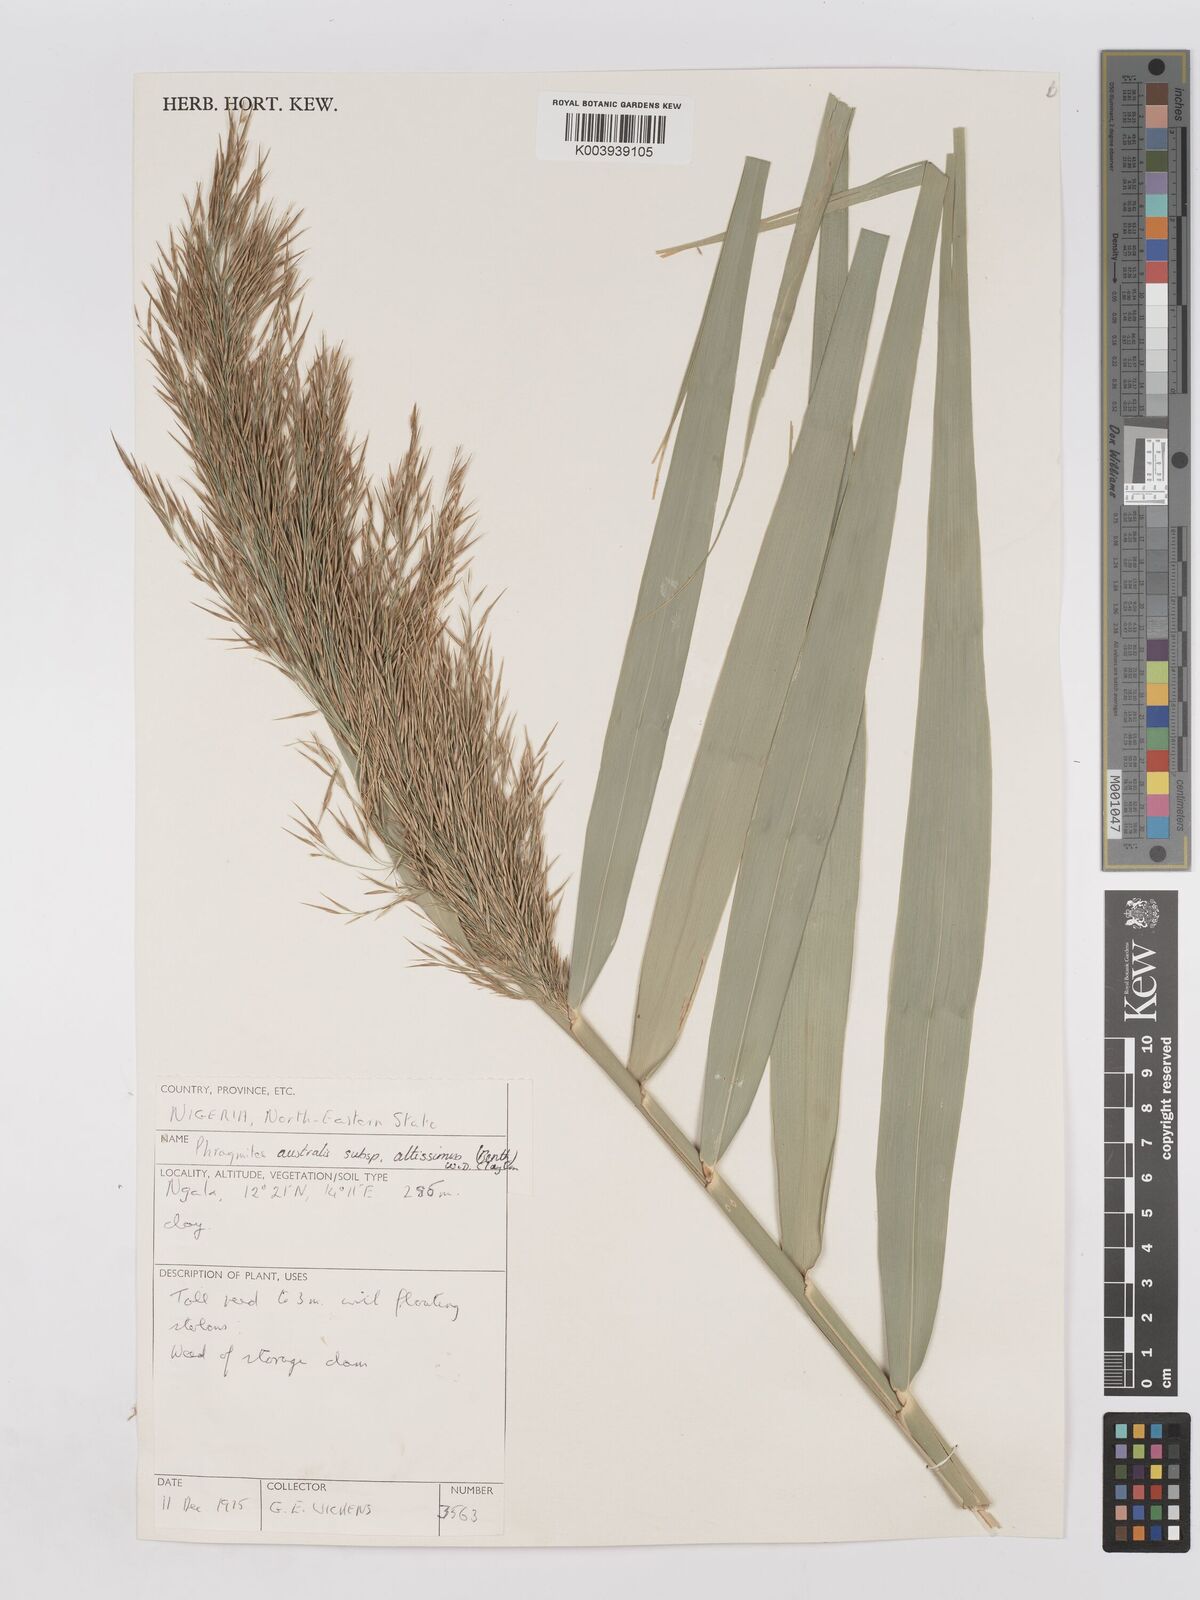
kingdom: Plantae
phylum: Tracheophyta
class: Liliopsida
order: Poales
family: Poaceae
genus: Phragmites
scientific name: Phragmites australis
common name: Common reed
